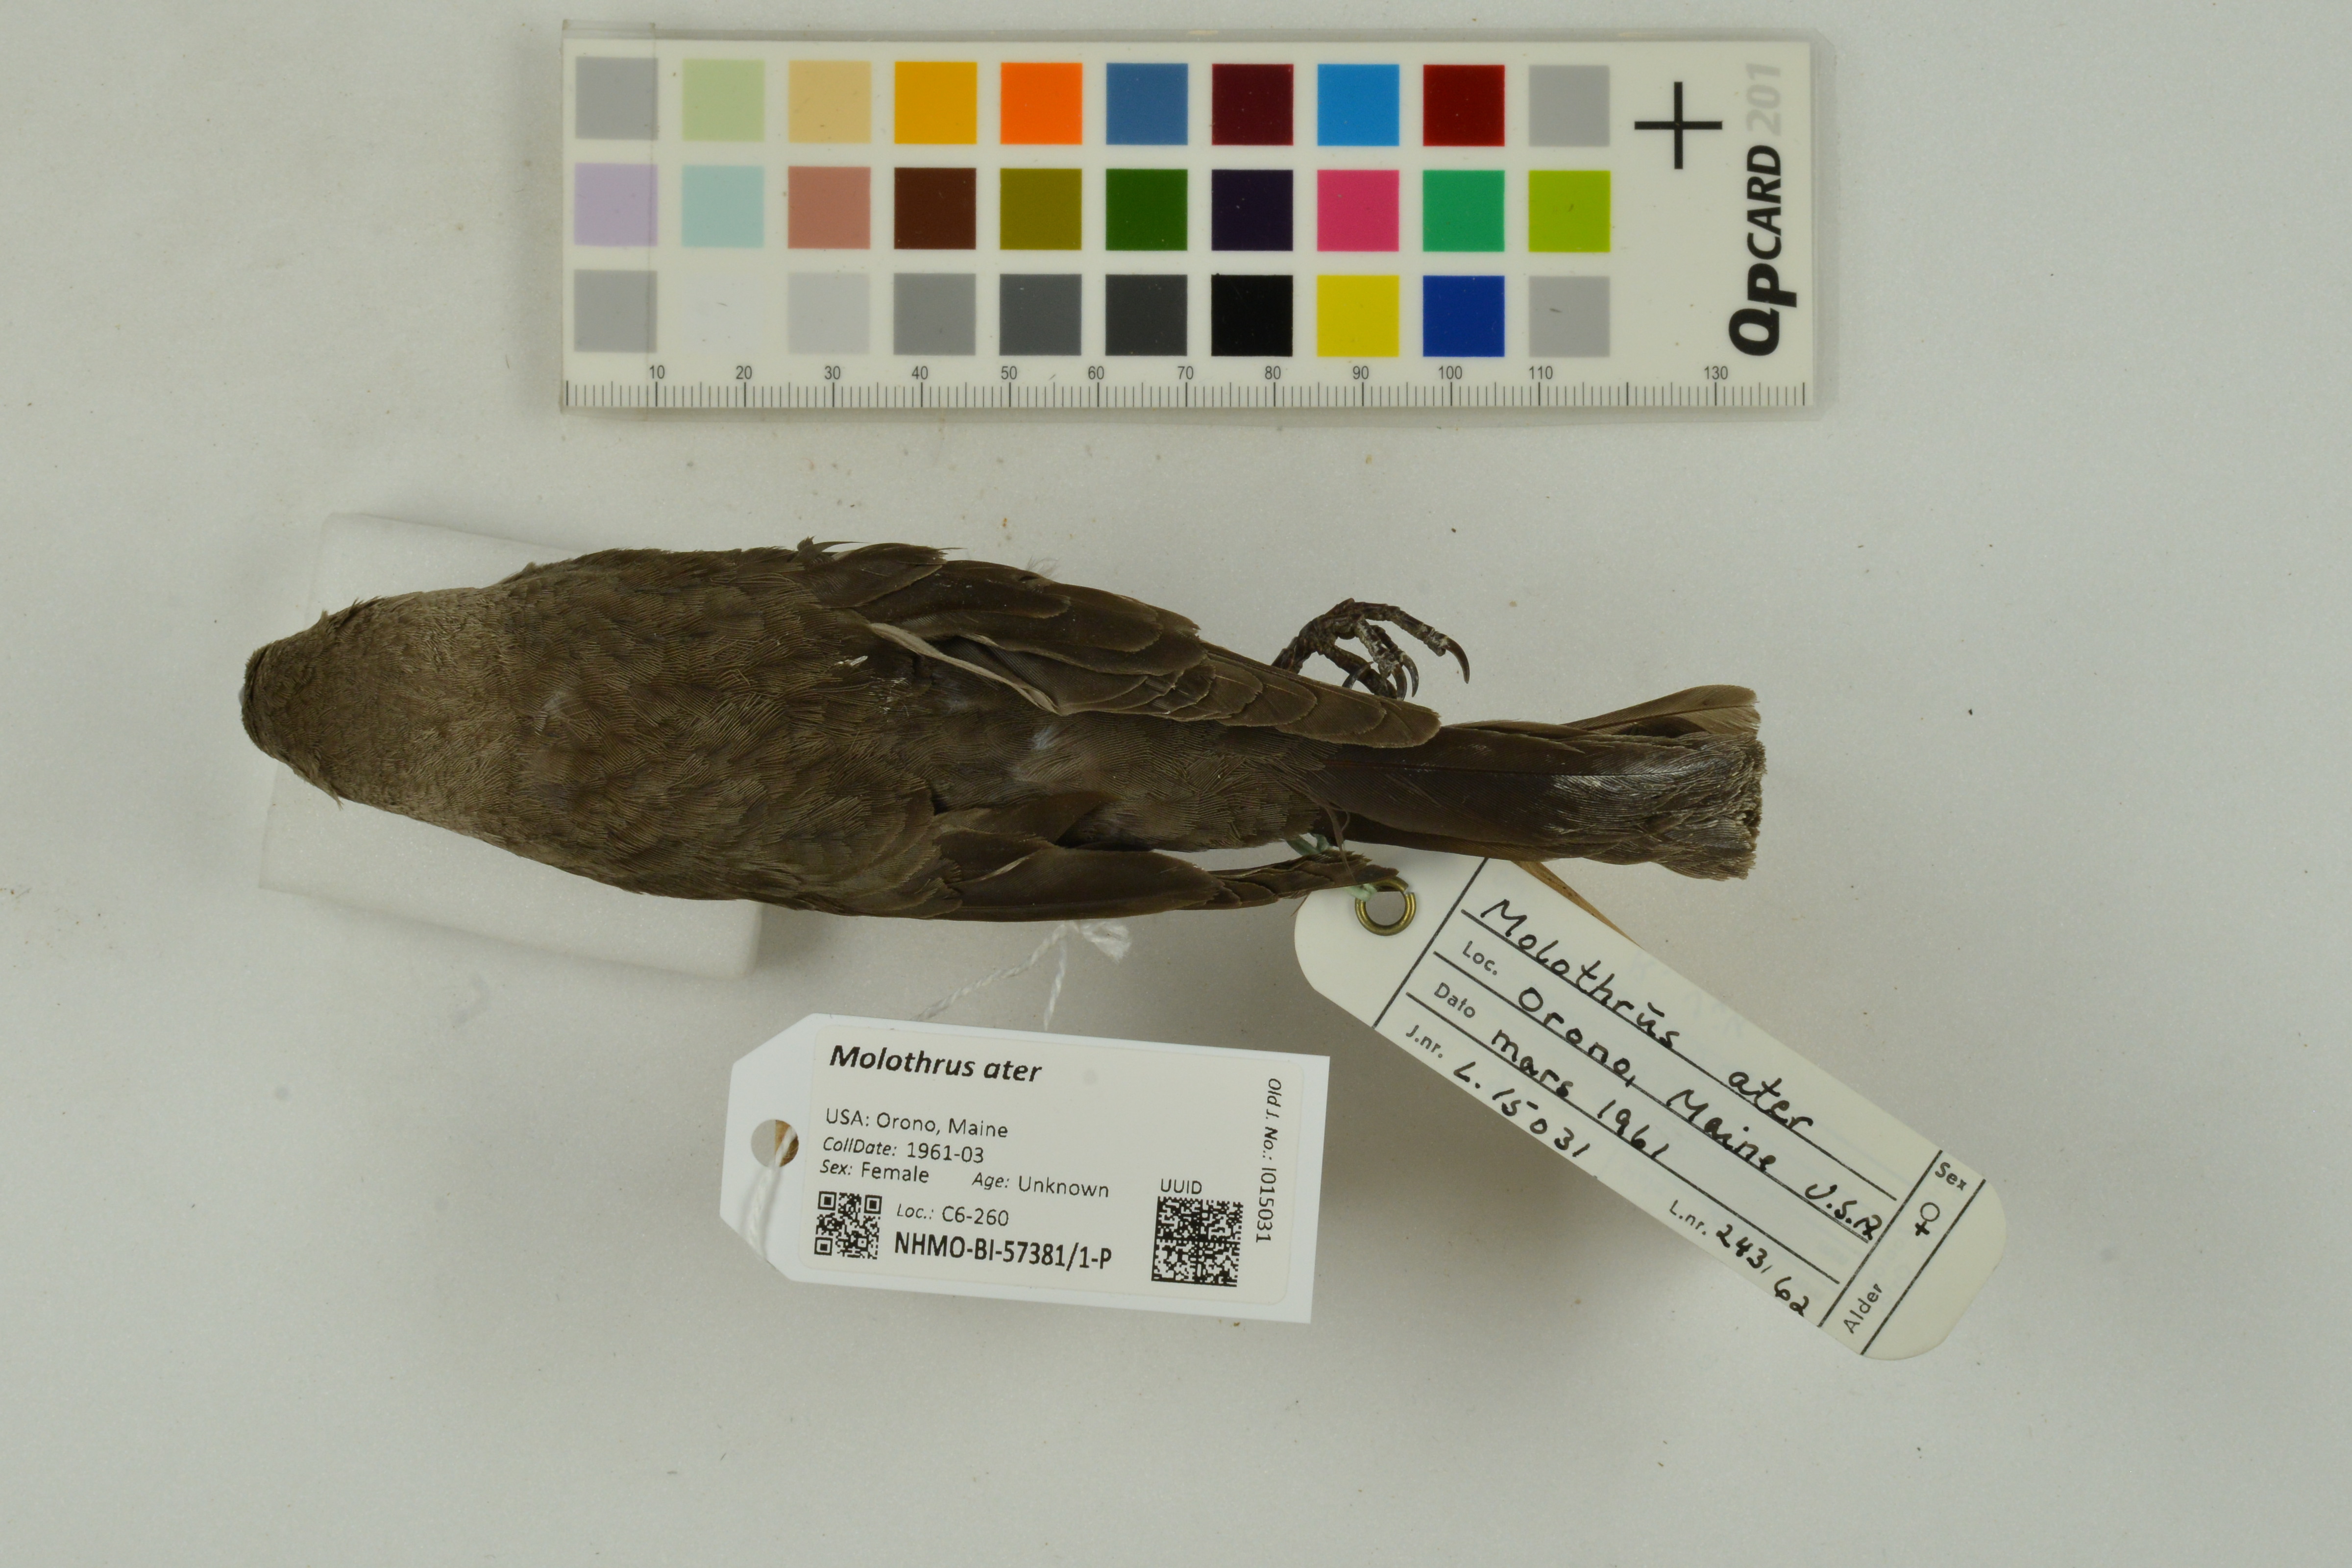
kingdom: Animalia
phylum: Chordata
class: Aves
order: Passeriformes
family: Icteridae
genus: Molothrus
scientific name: Molothrus ater
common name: Brown-headed cowbird
